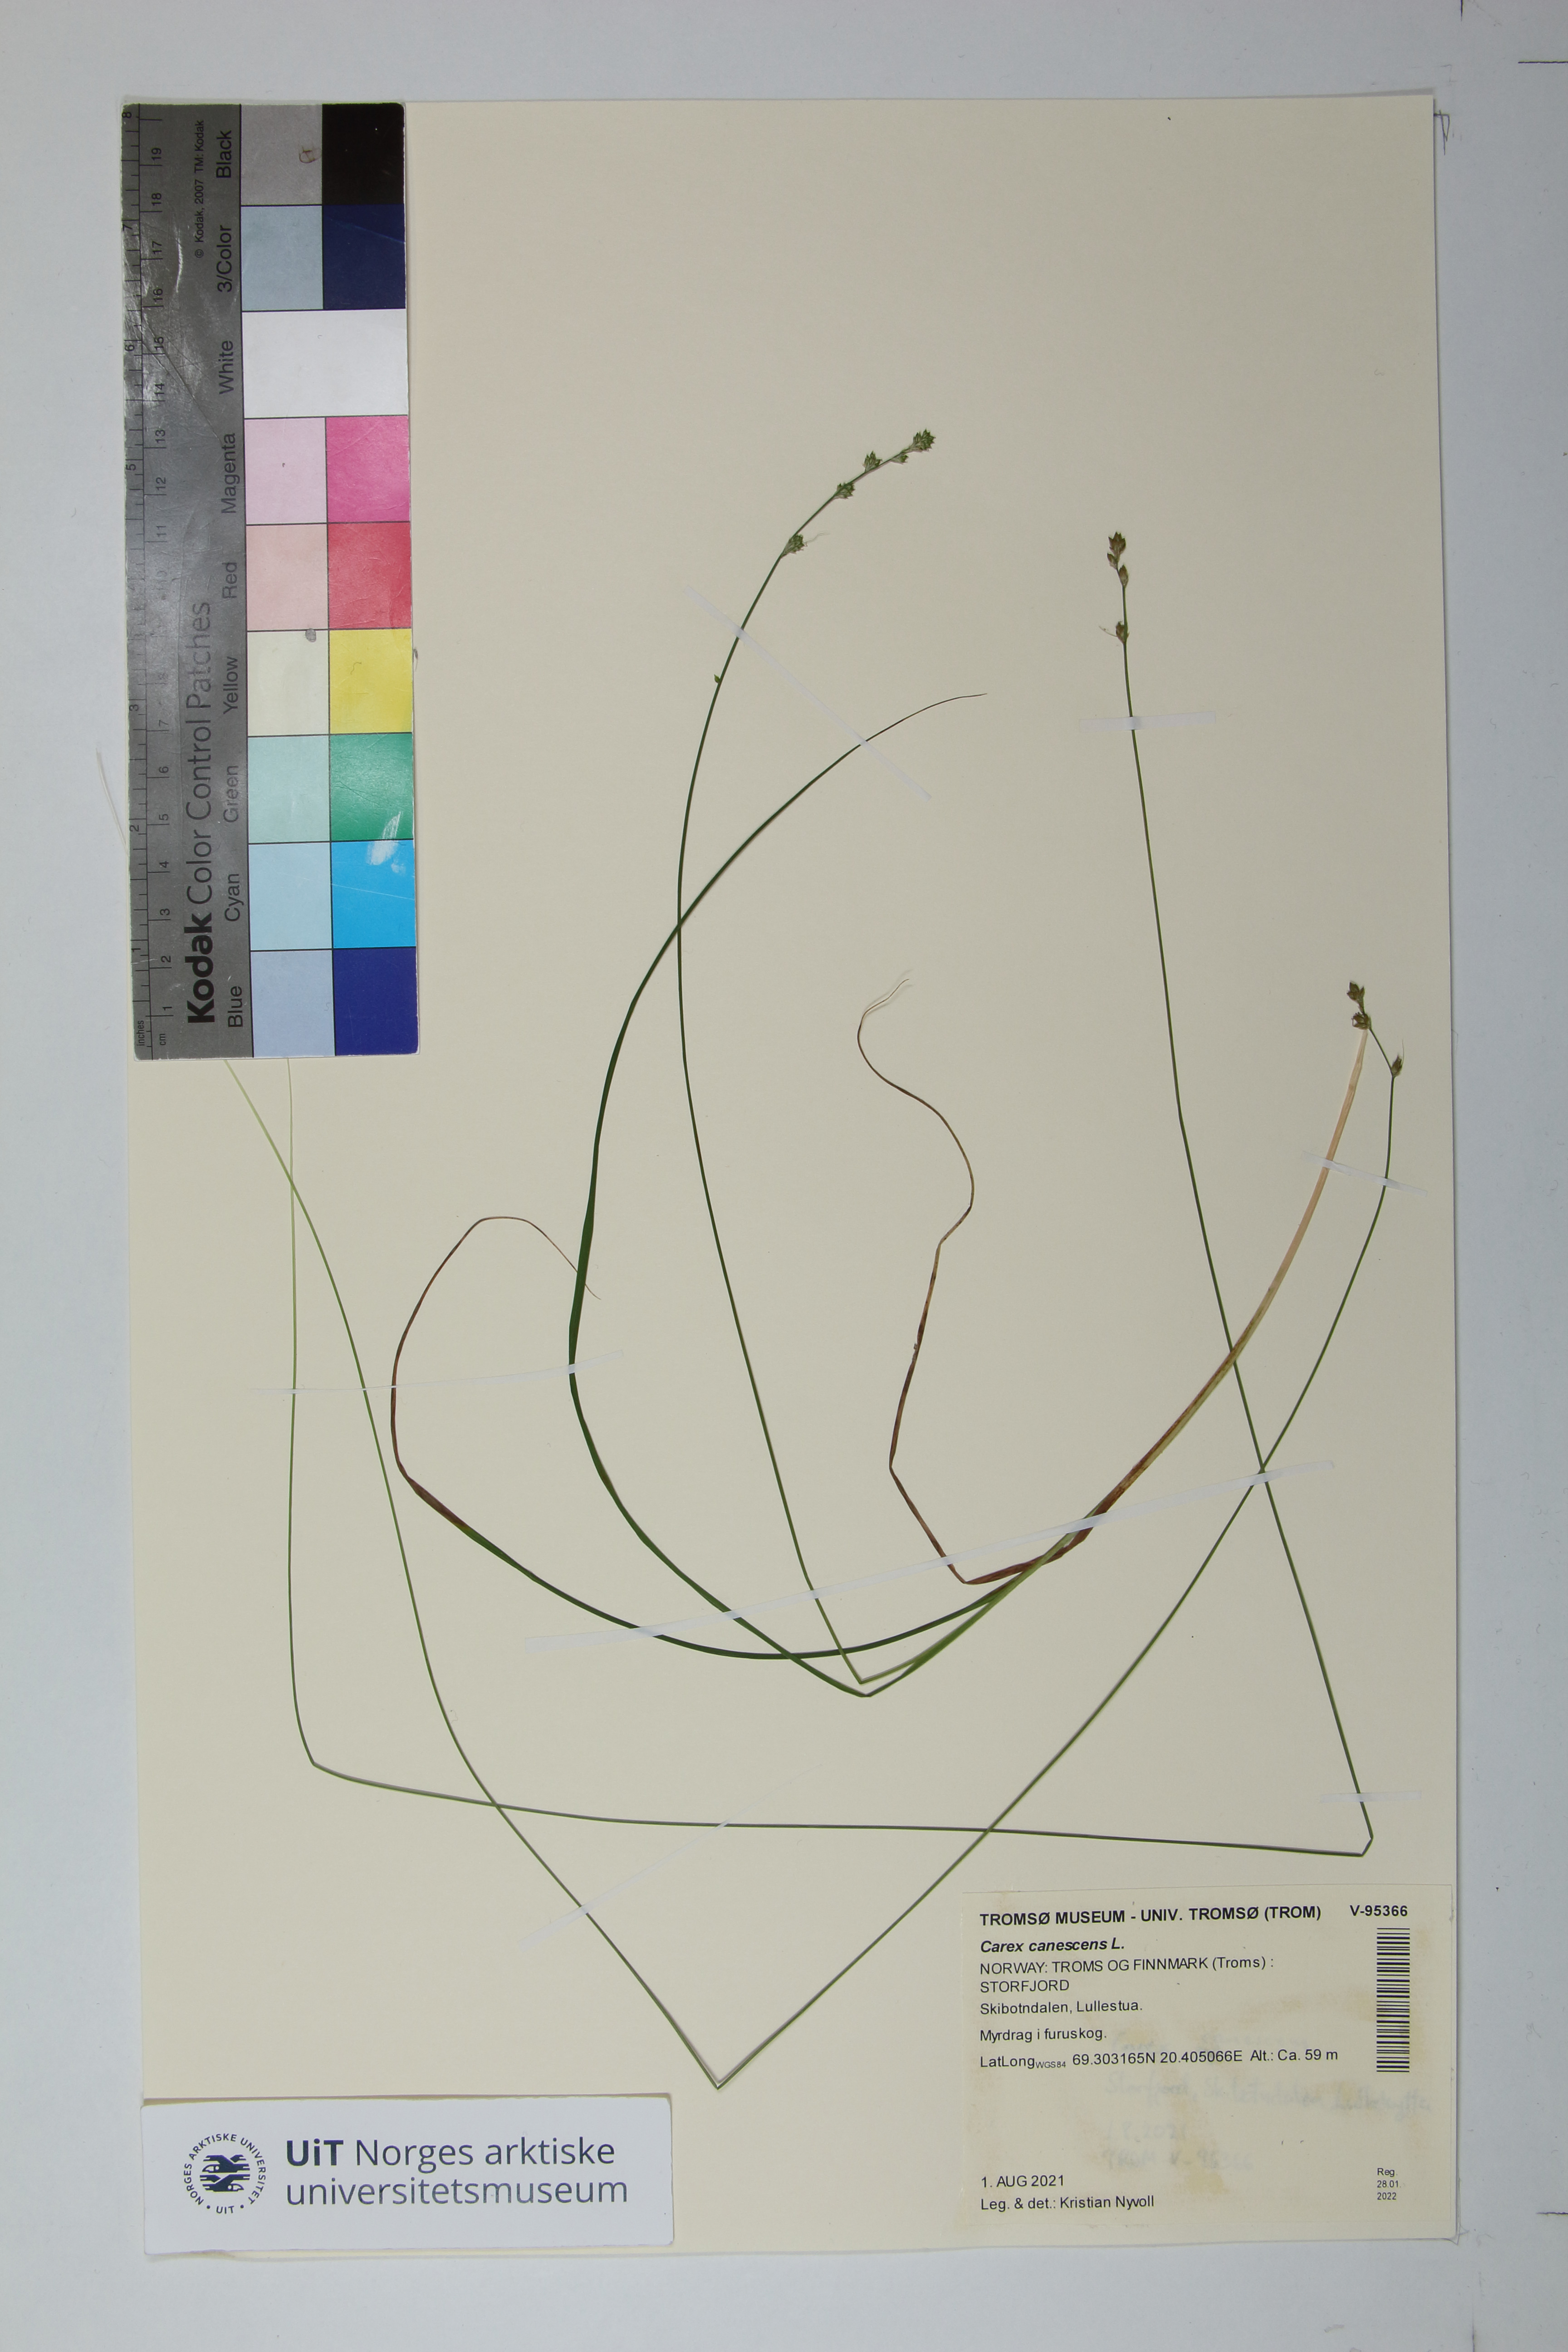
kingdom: Plantae
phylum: Tracheophyta
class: Liliopsida
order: Poales
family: Cyperaceae
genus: Carex
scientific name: Carex canescens
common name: White sedge
